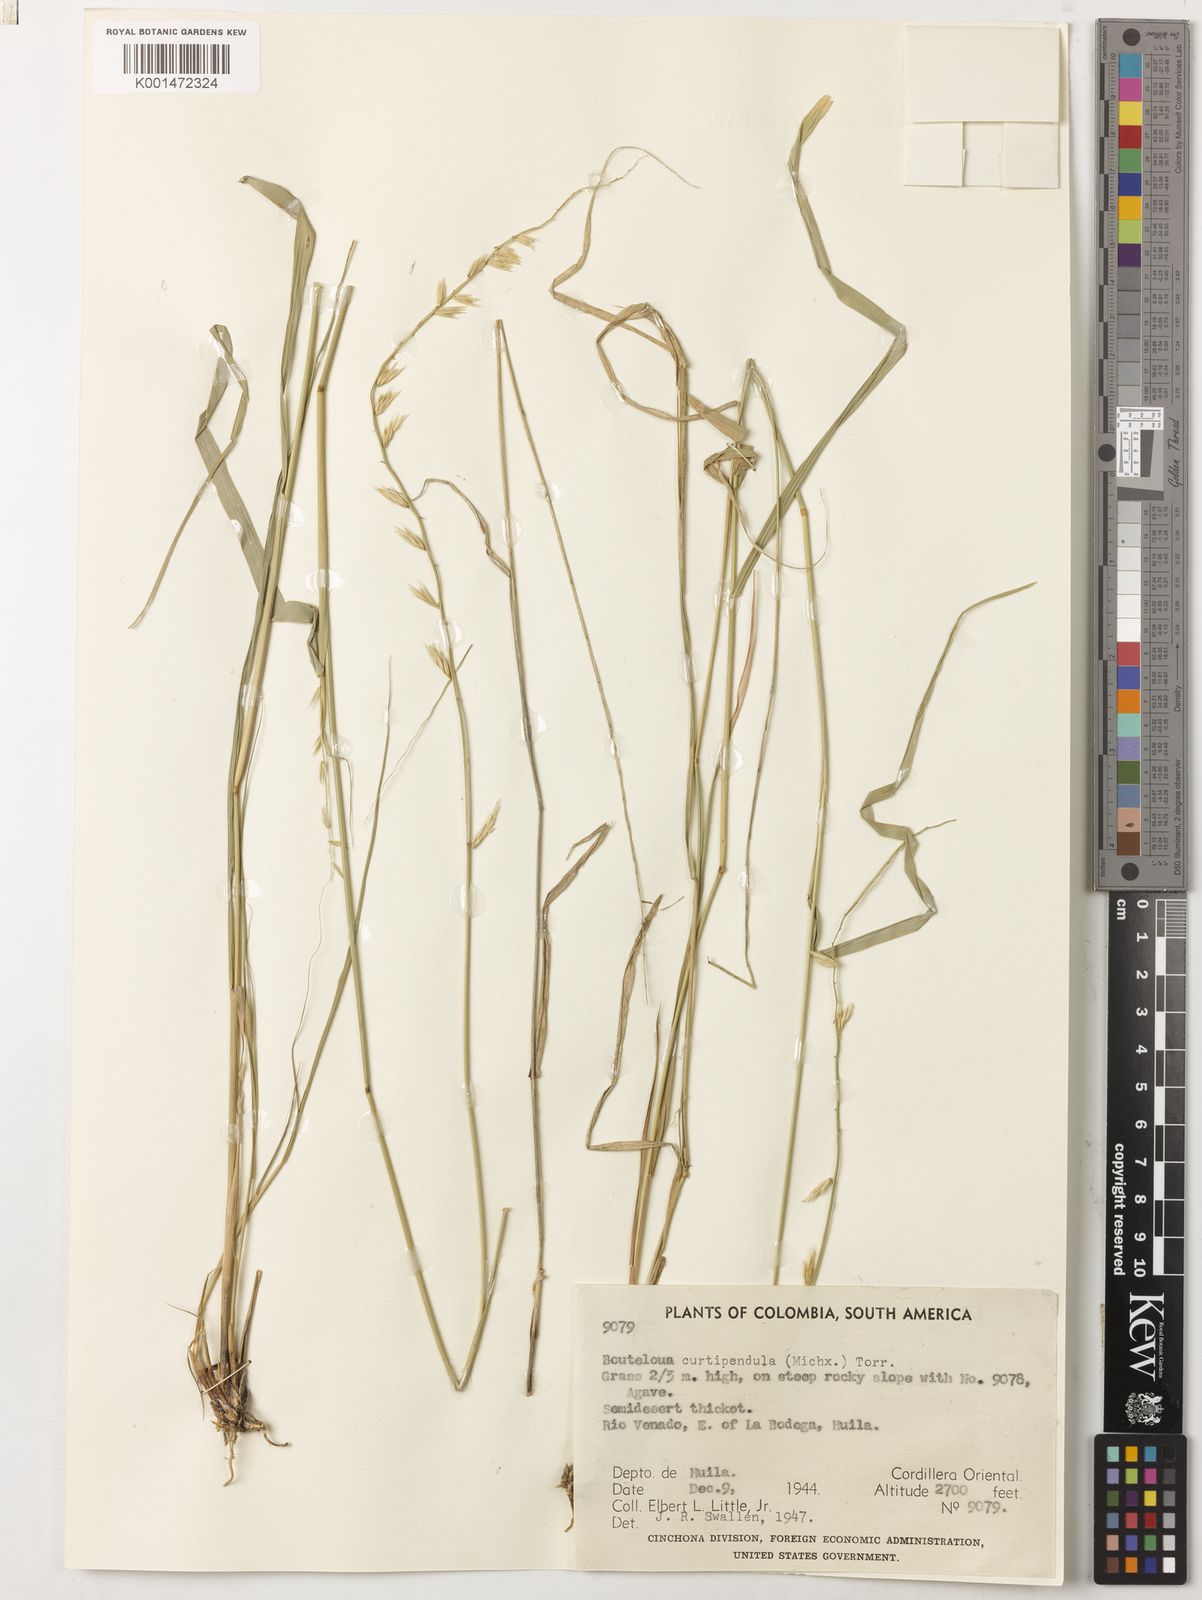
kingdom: Plantae
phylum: Tracheophyta
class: Liliopsida
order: Poales
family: Poaceae
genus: Bouteloua
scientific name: Bouteloua curtipendula
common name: Side-oats grama
